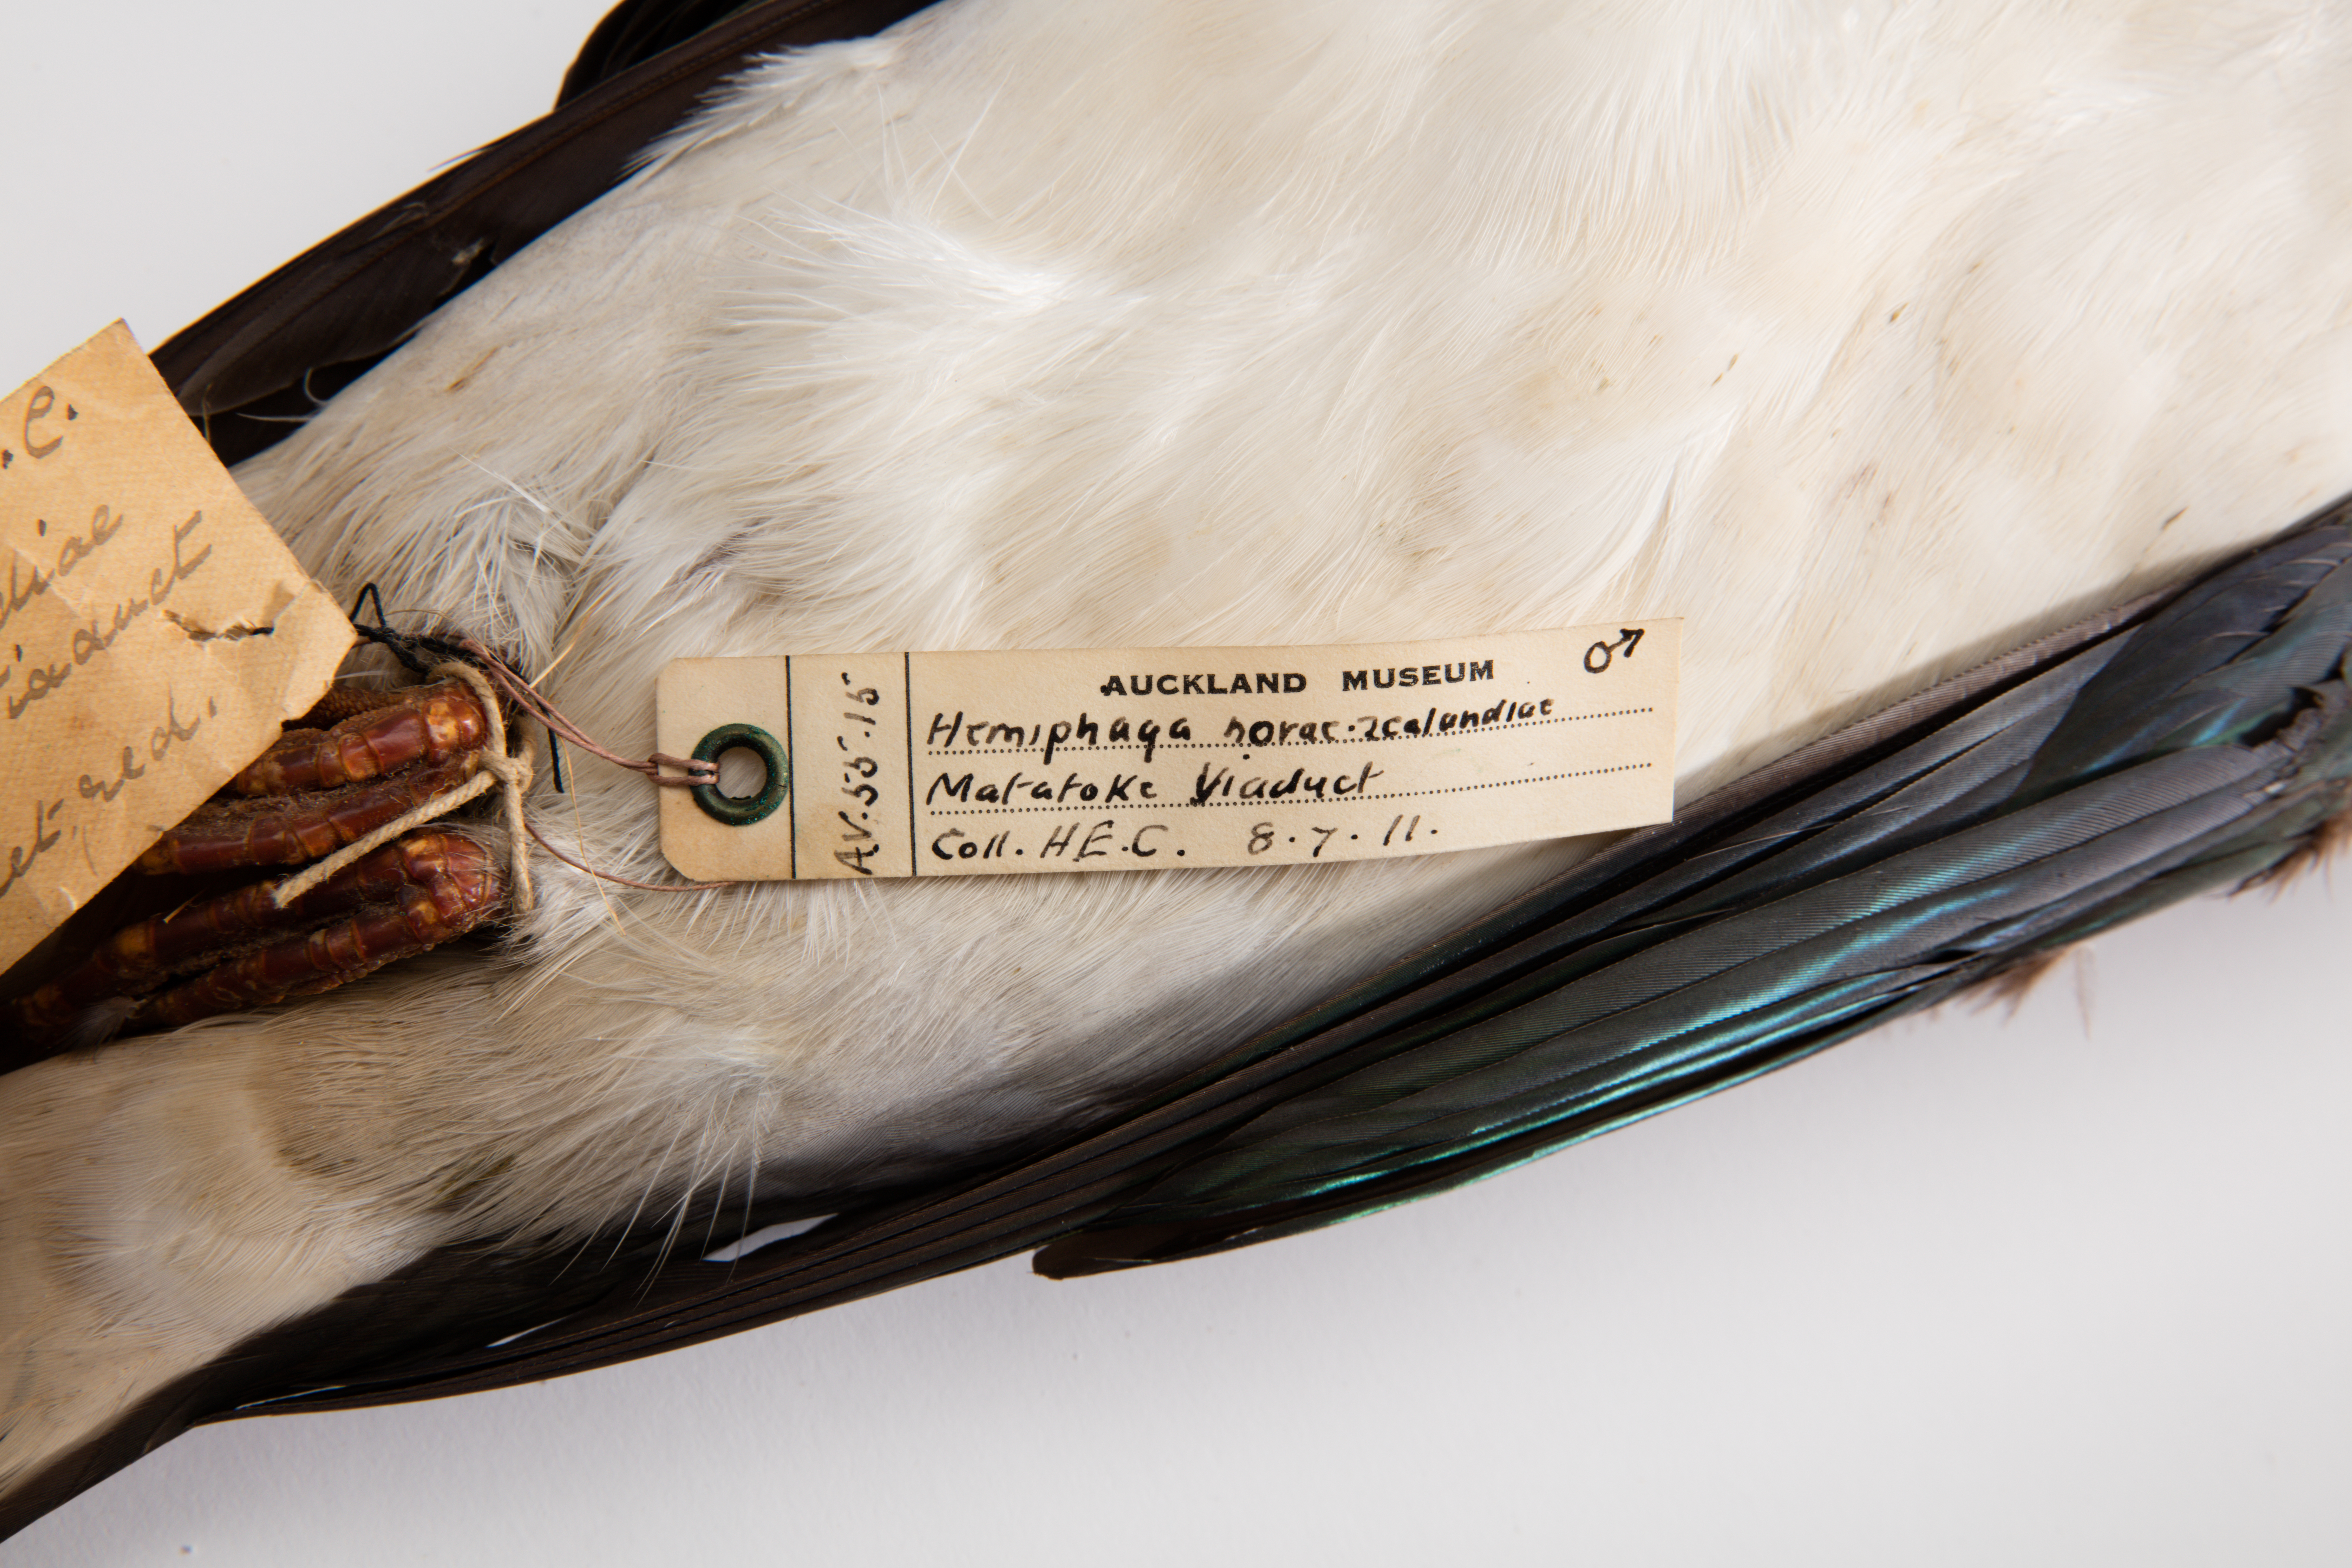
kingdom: Animalia
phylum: Chordata
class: Aves
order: Columbiformes
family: Columbidae
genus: Hemiphaga
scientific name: Hemiphaga novaeseelandiae
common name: New zealand pigeon
